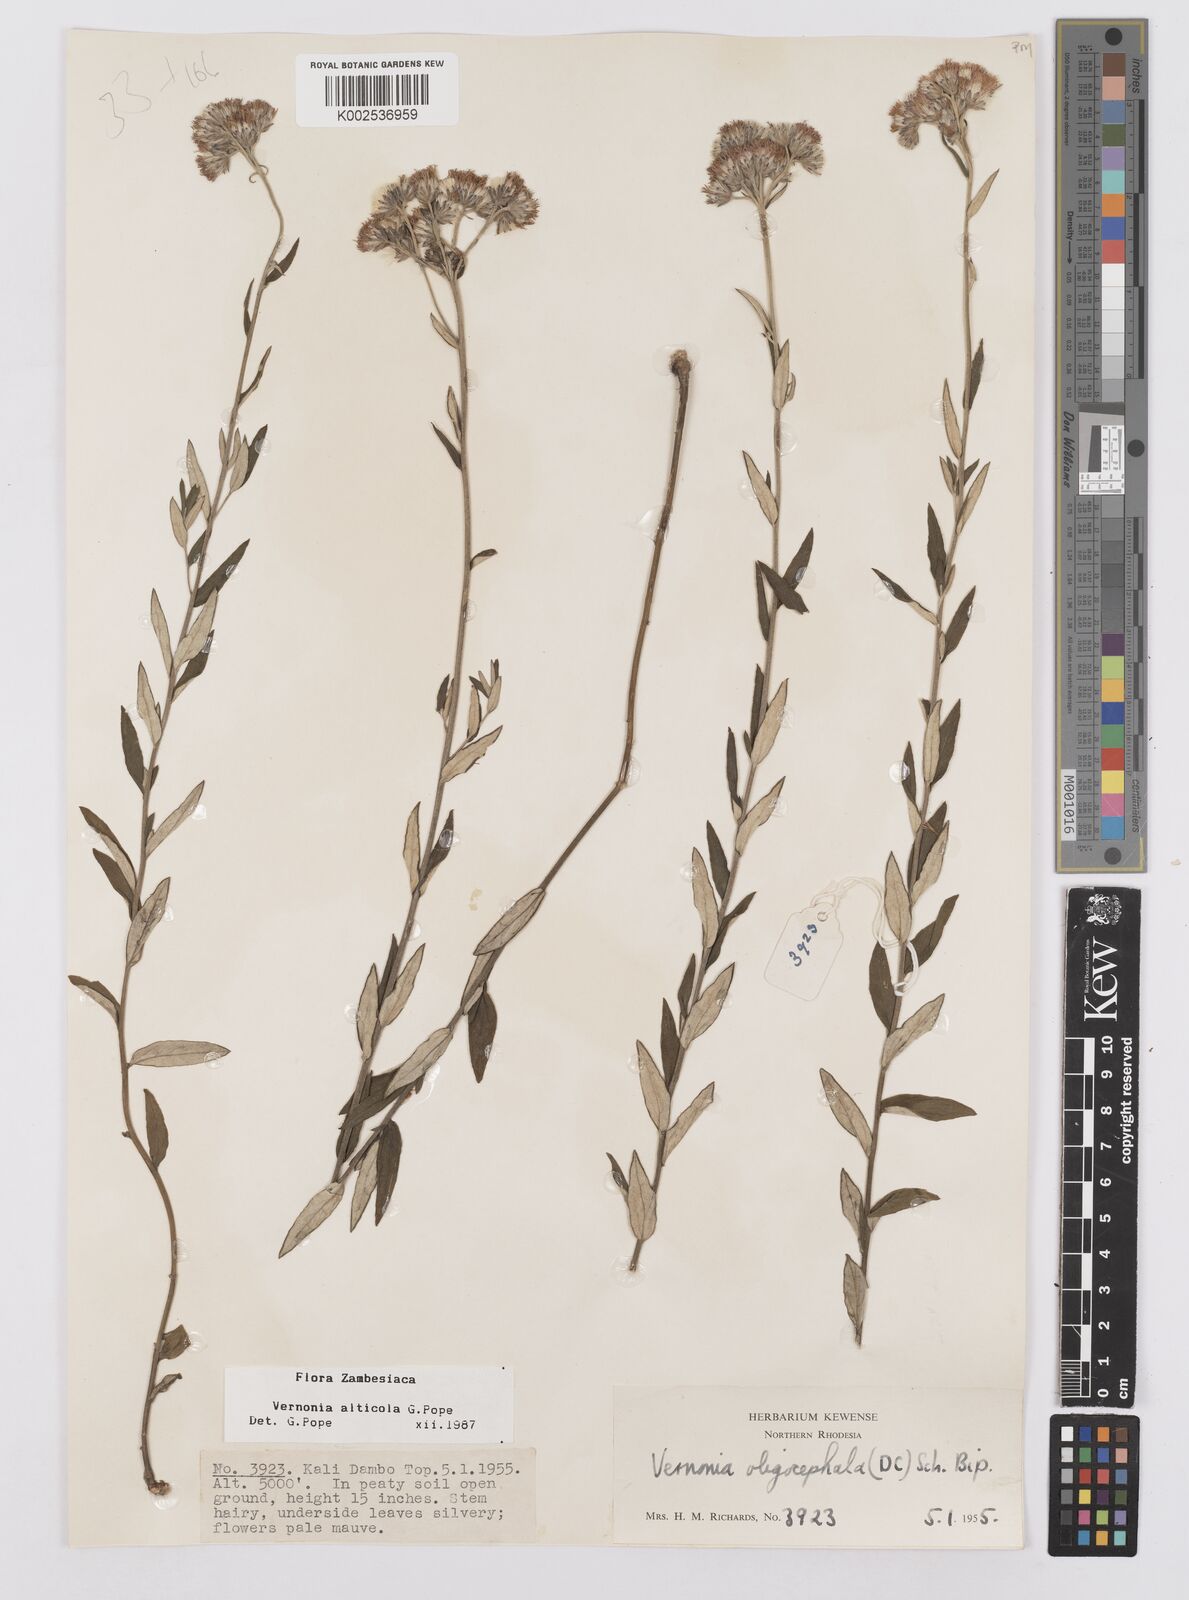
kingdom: Plantae
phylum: Tracheophyta
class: Magnoliopsida
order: Asterales
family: Asteraceae
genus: Vernonia
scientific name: Vernonia alticola
